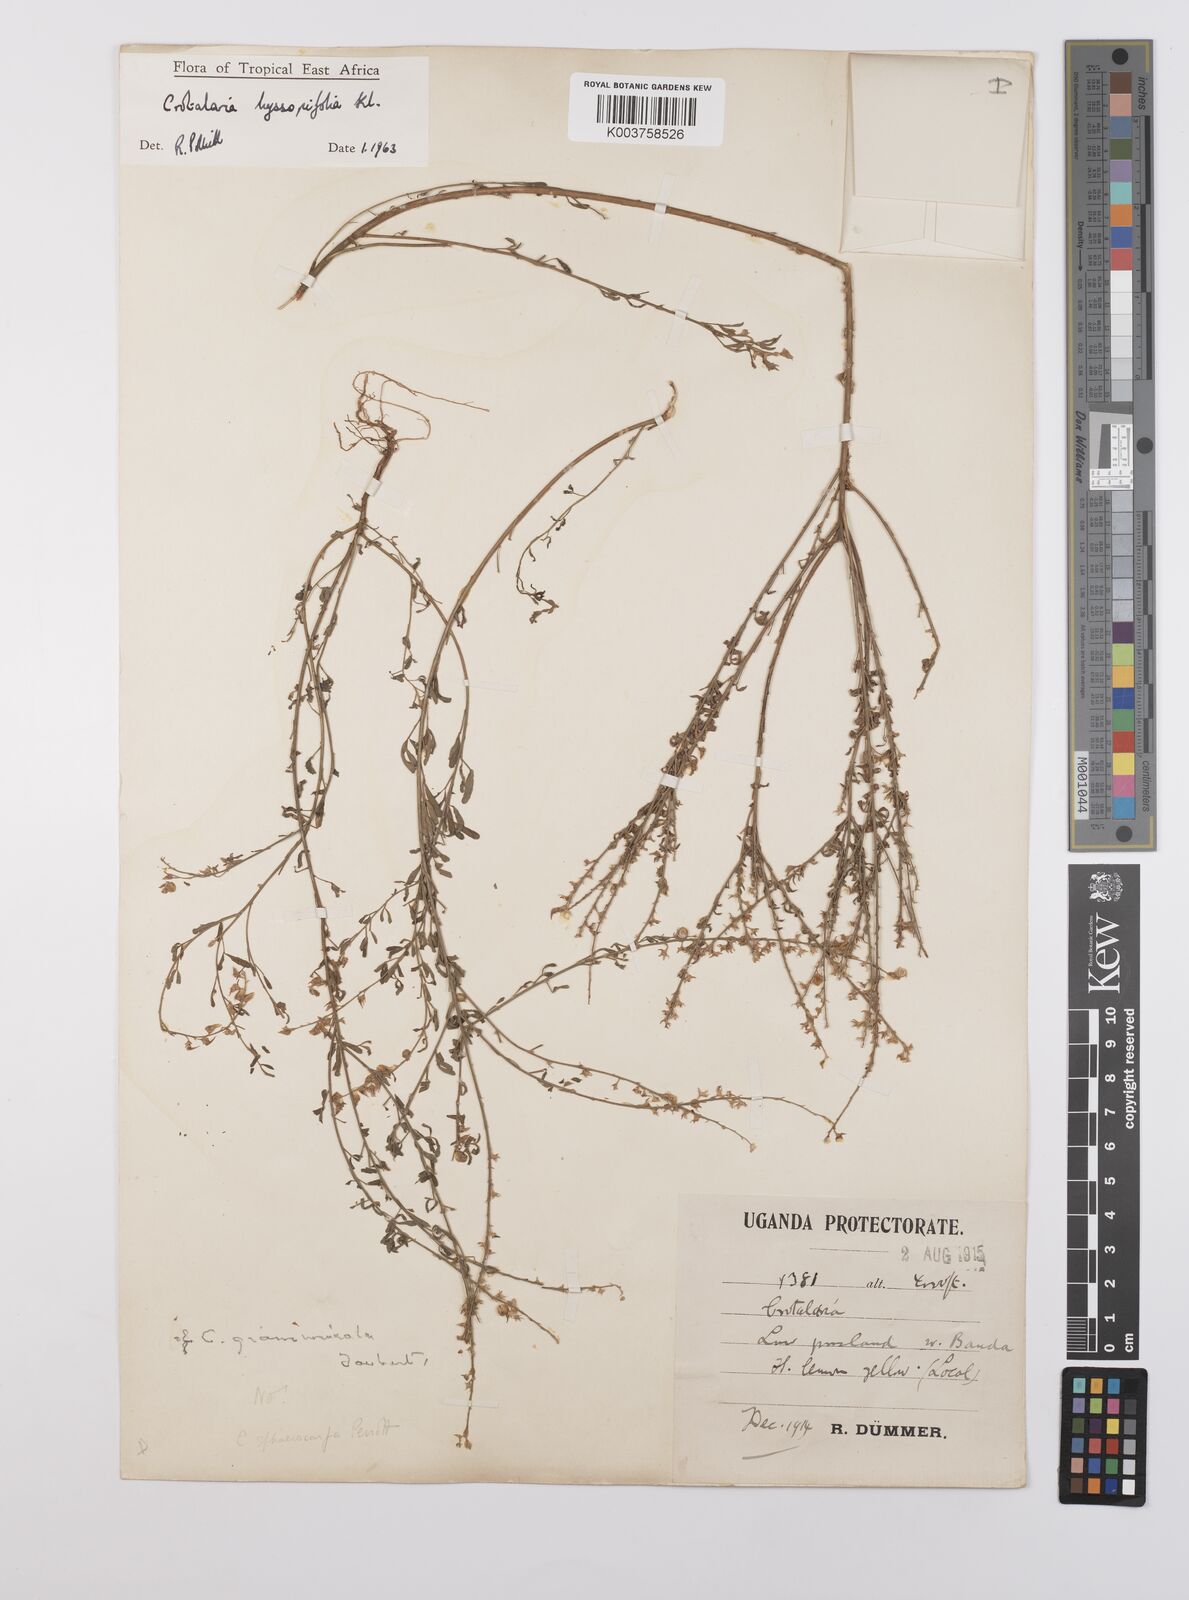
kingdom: Plantae
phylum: Tracheophyta
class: Magnoliopsida
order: Fabales
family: Fabaceae
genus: Crotalaria
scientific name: Crotalaria hyssopifolia
